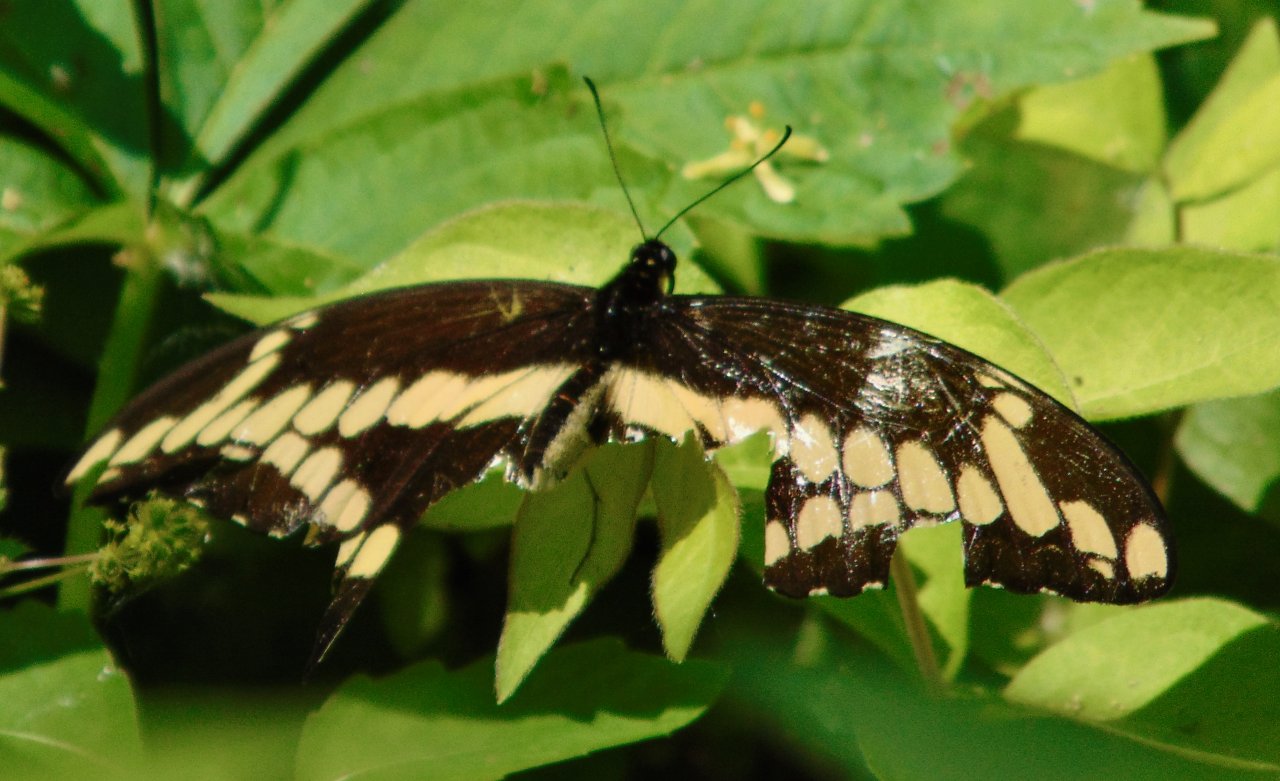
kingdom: Animalia
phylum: Arthropoda
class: Insecta
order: Lepidoptera
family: Papilionidae
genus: Papilio
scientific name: Papilio cresphontes
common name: Eastern Giant Swallowtail
